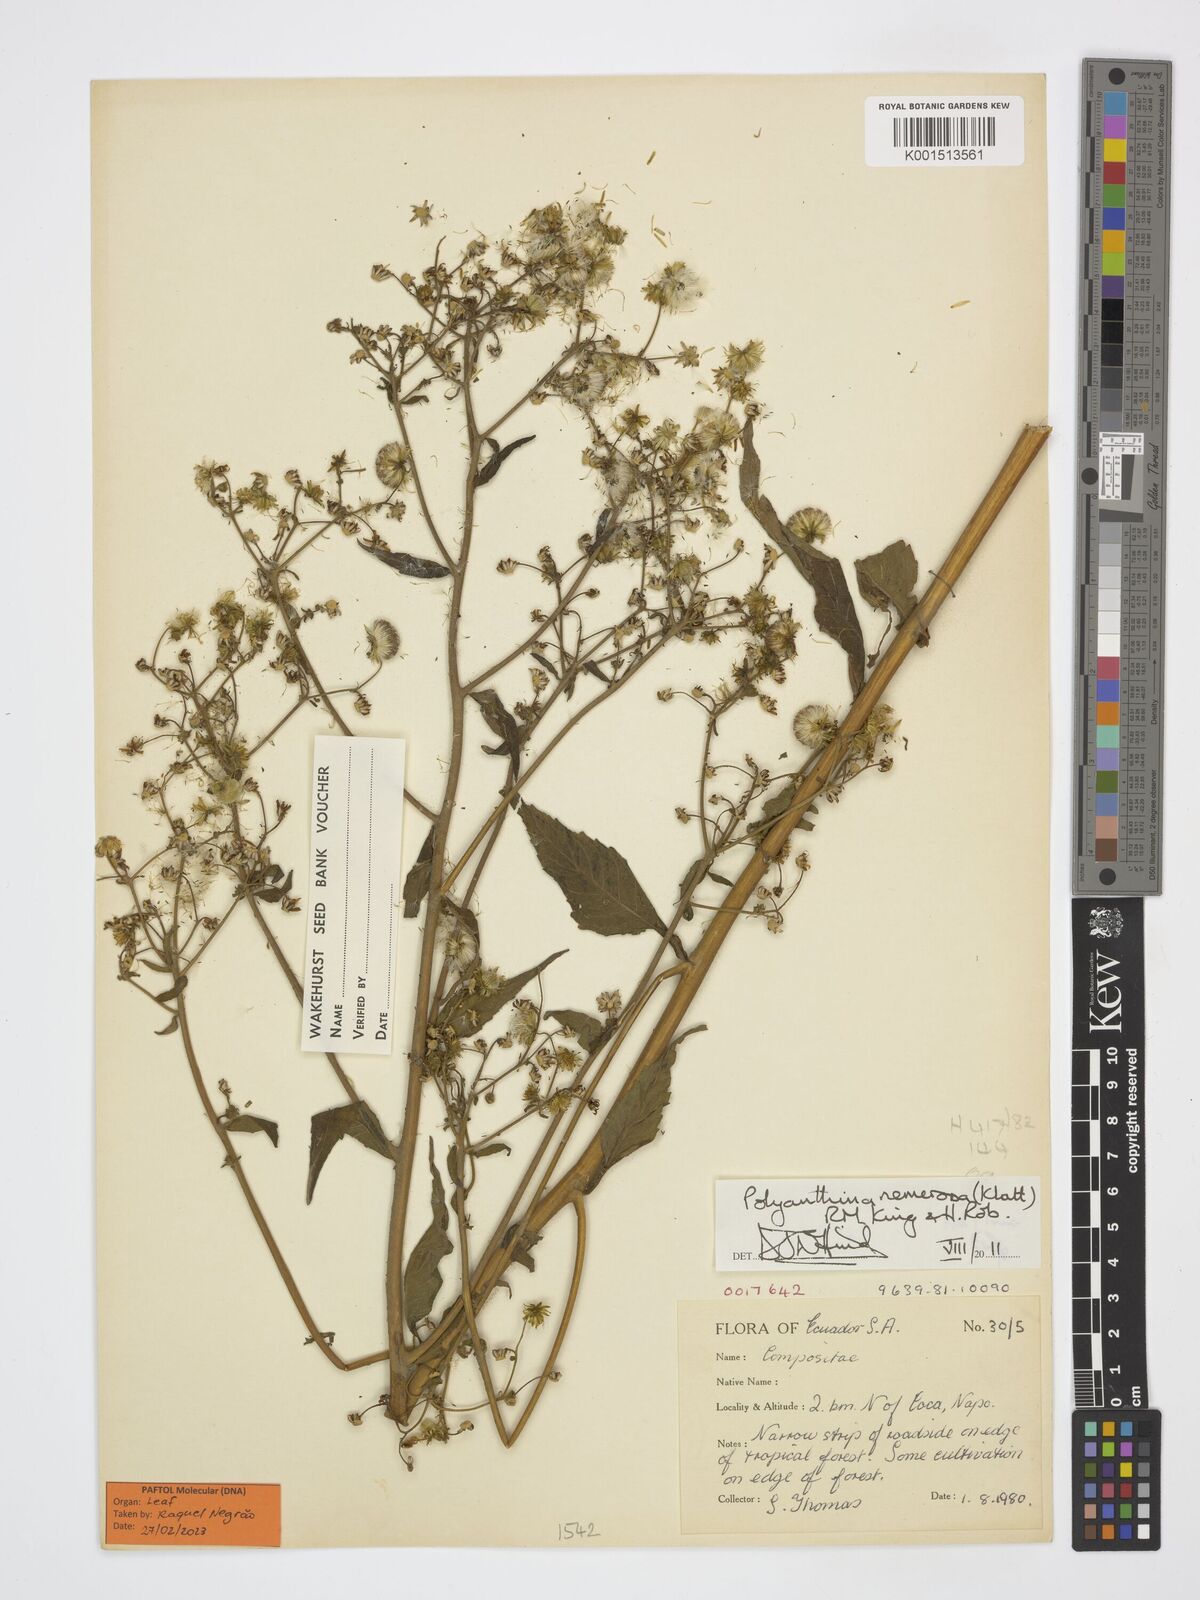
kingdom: Plantae
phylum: Tracheophyta
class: Magnoliopsida
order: Asterales
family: Asteraceae
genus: Polyanthina
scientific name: Polyanthina nemorosa
